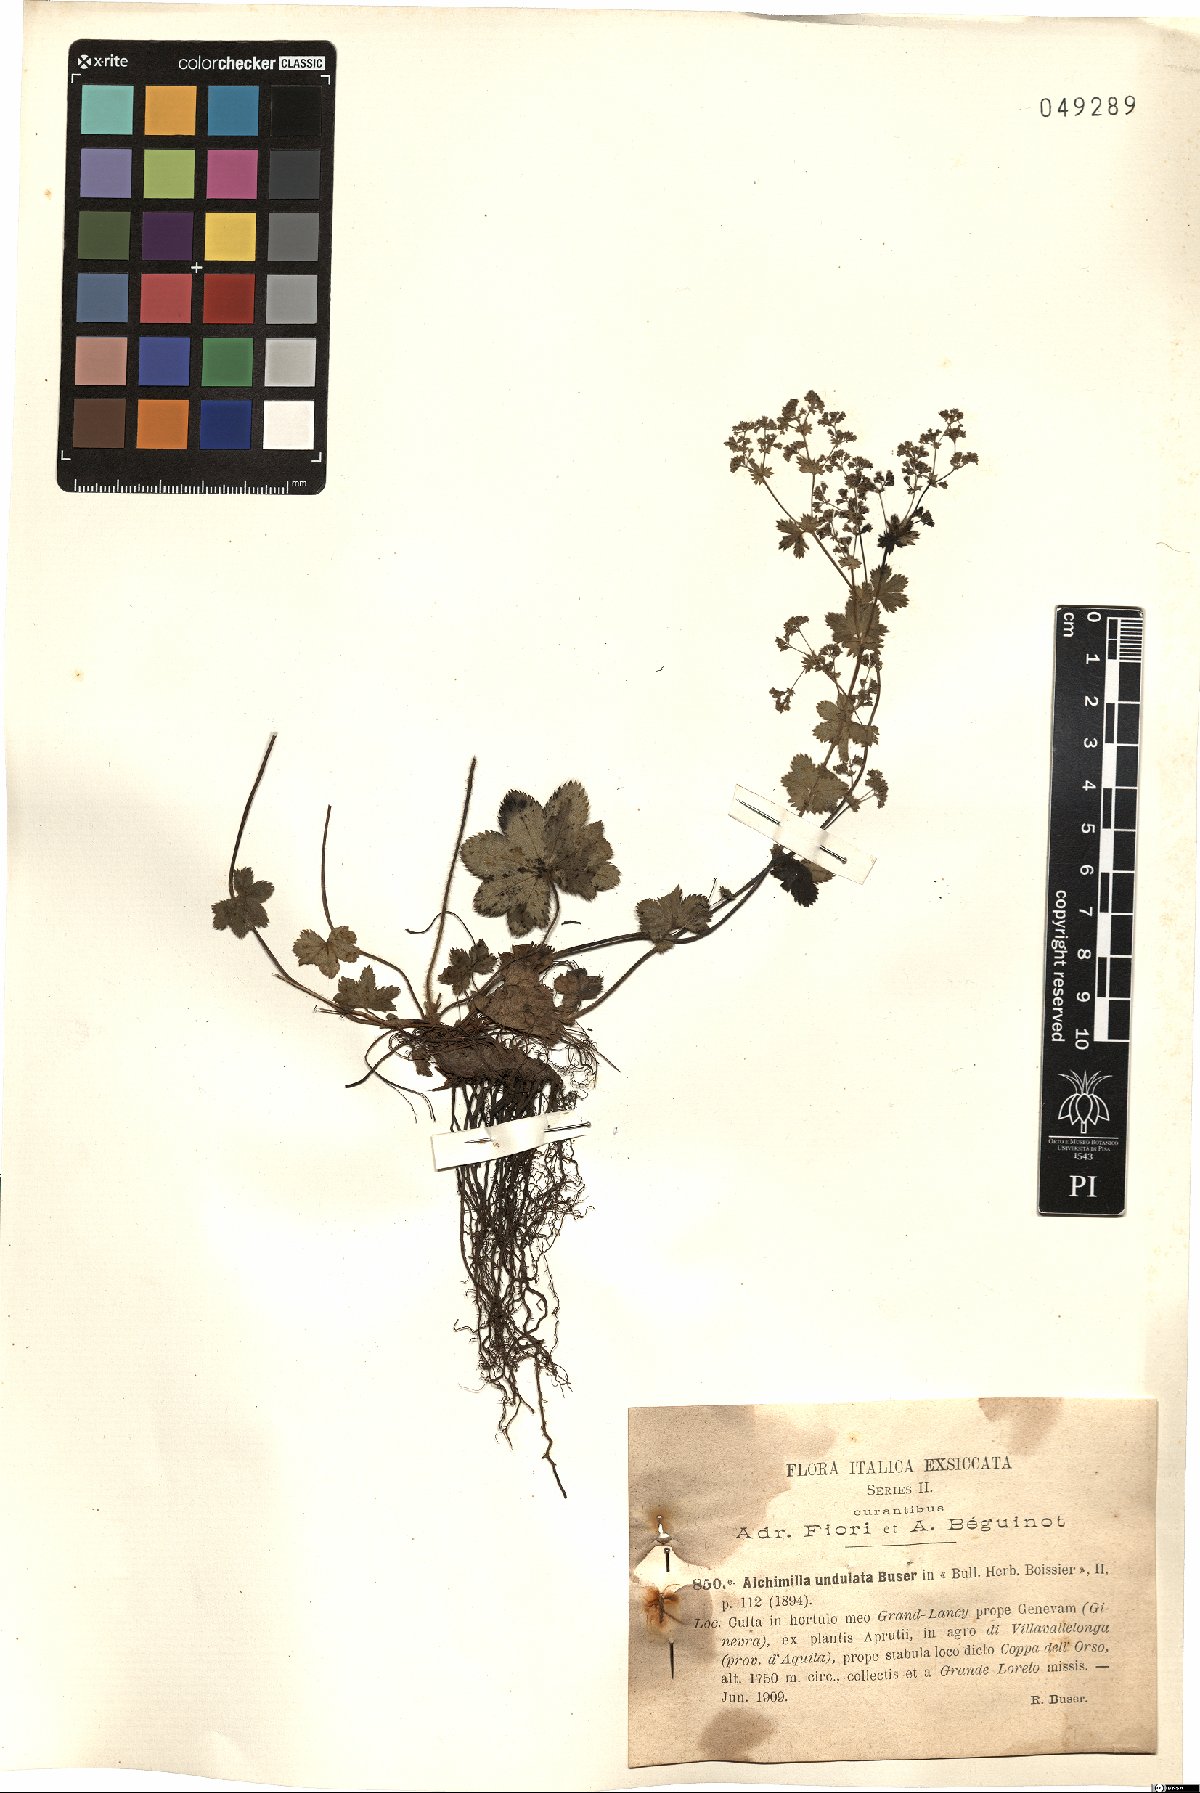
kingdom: Plantae
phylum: Tracheophyta
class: Magnoliopsida
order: Rosales
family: Rosaceae
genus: Alchemilla
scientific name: Alchemilla undulata
